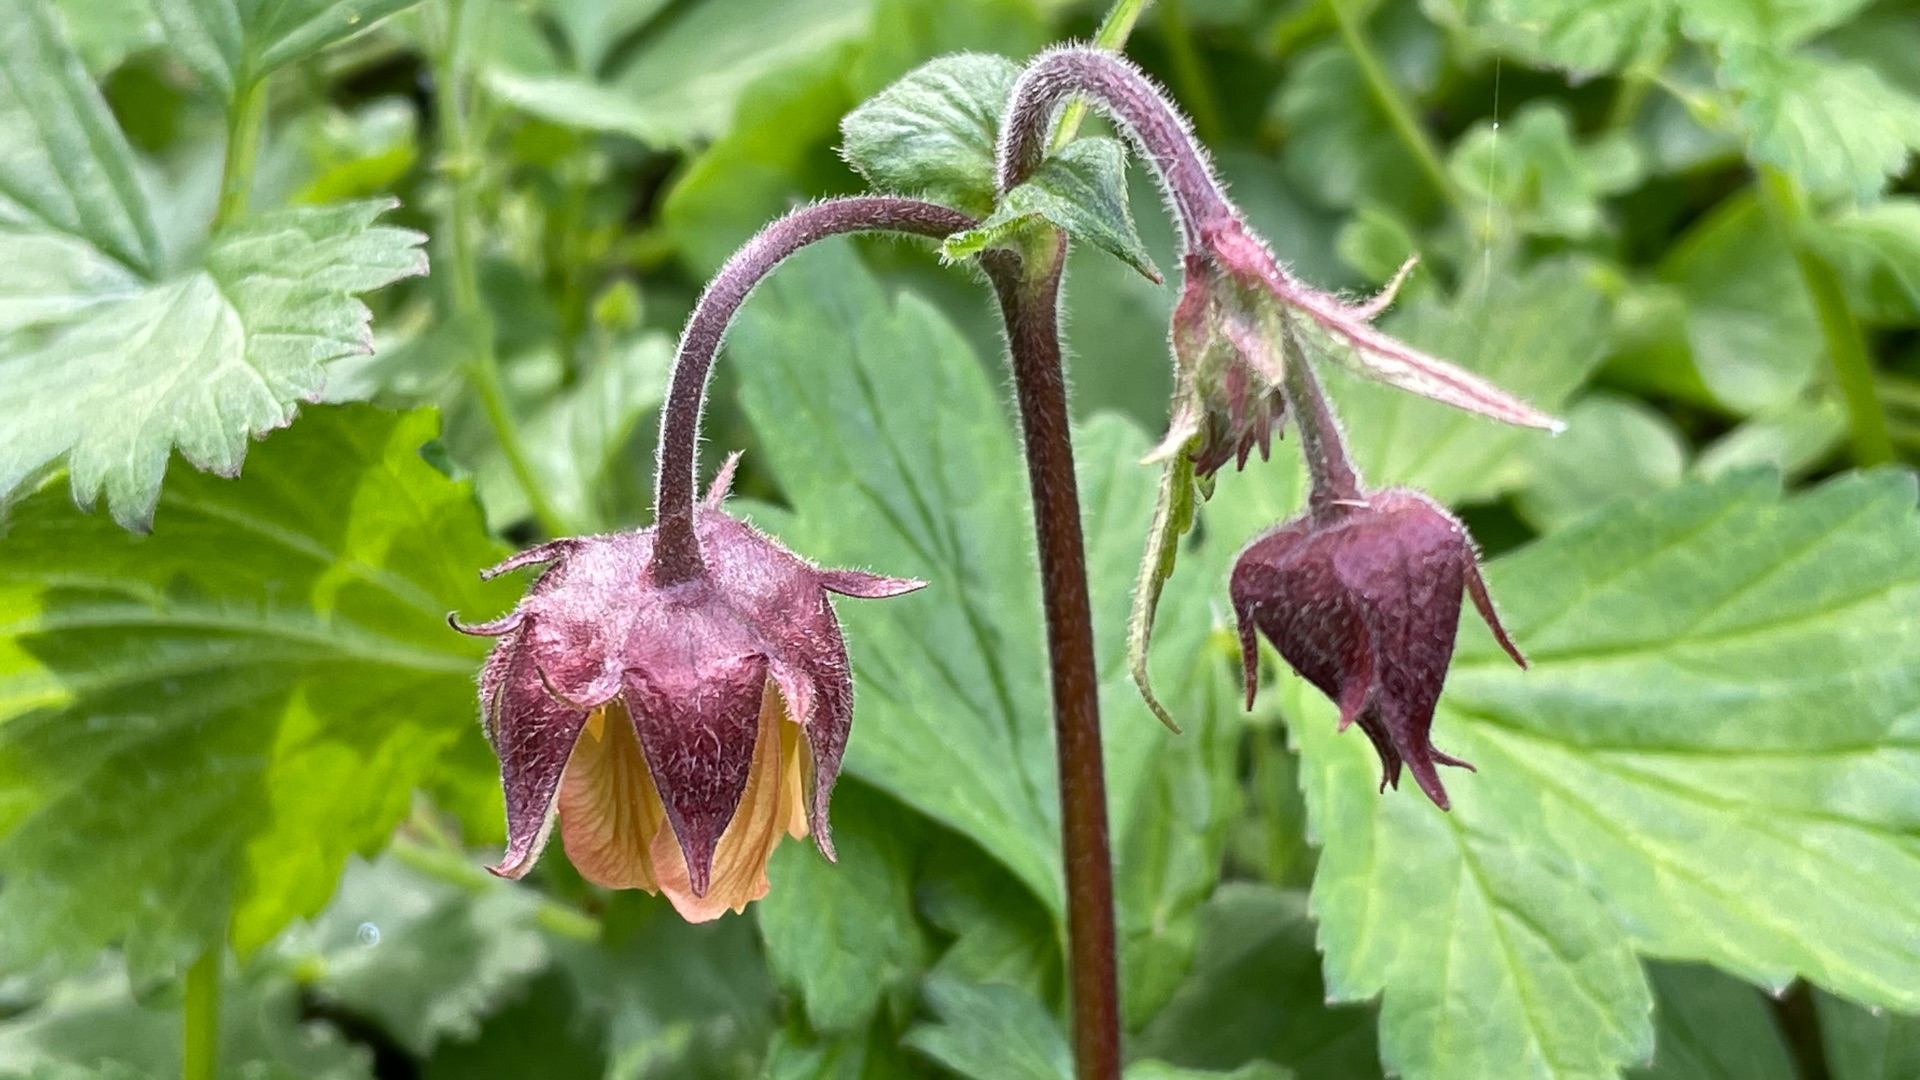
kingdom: Plantae
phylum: Tracheophyta
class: Magnoliopsida
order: Rosales
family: Rosaceae
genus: Geum
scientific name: Geum rivale
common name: Eng-nellikerod
